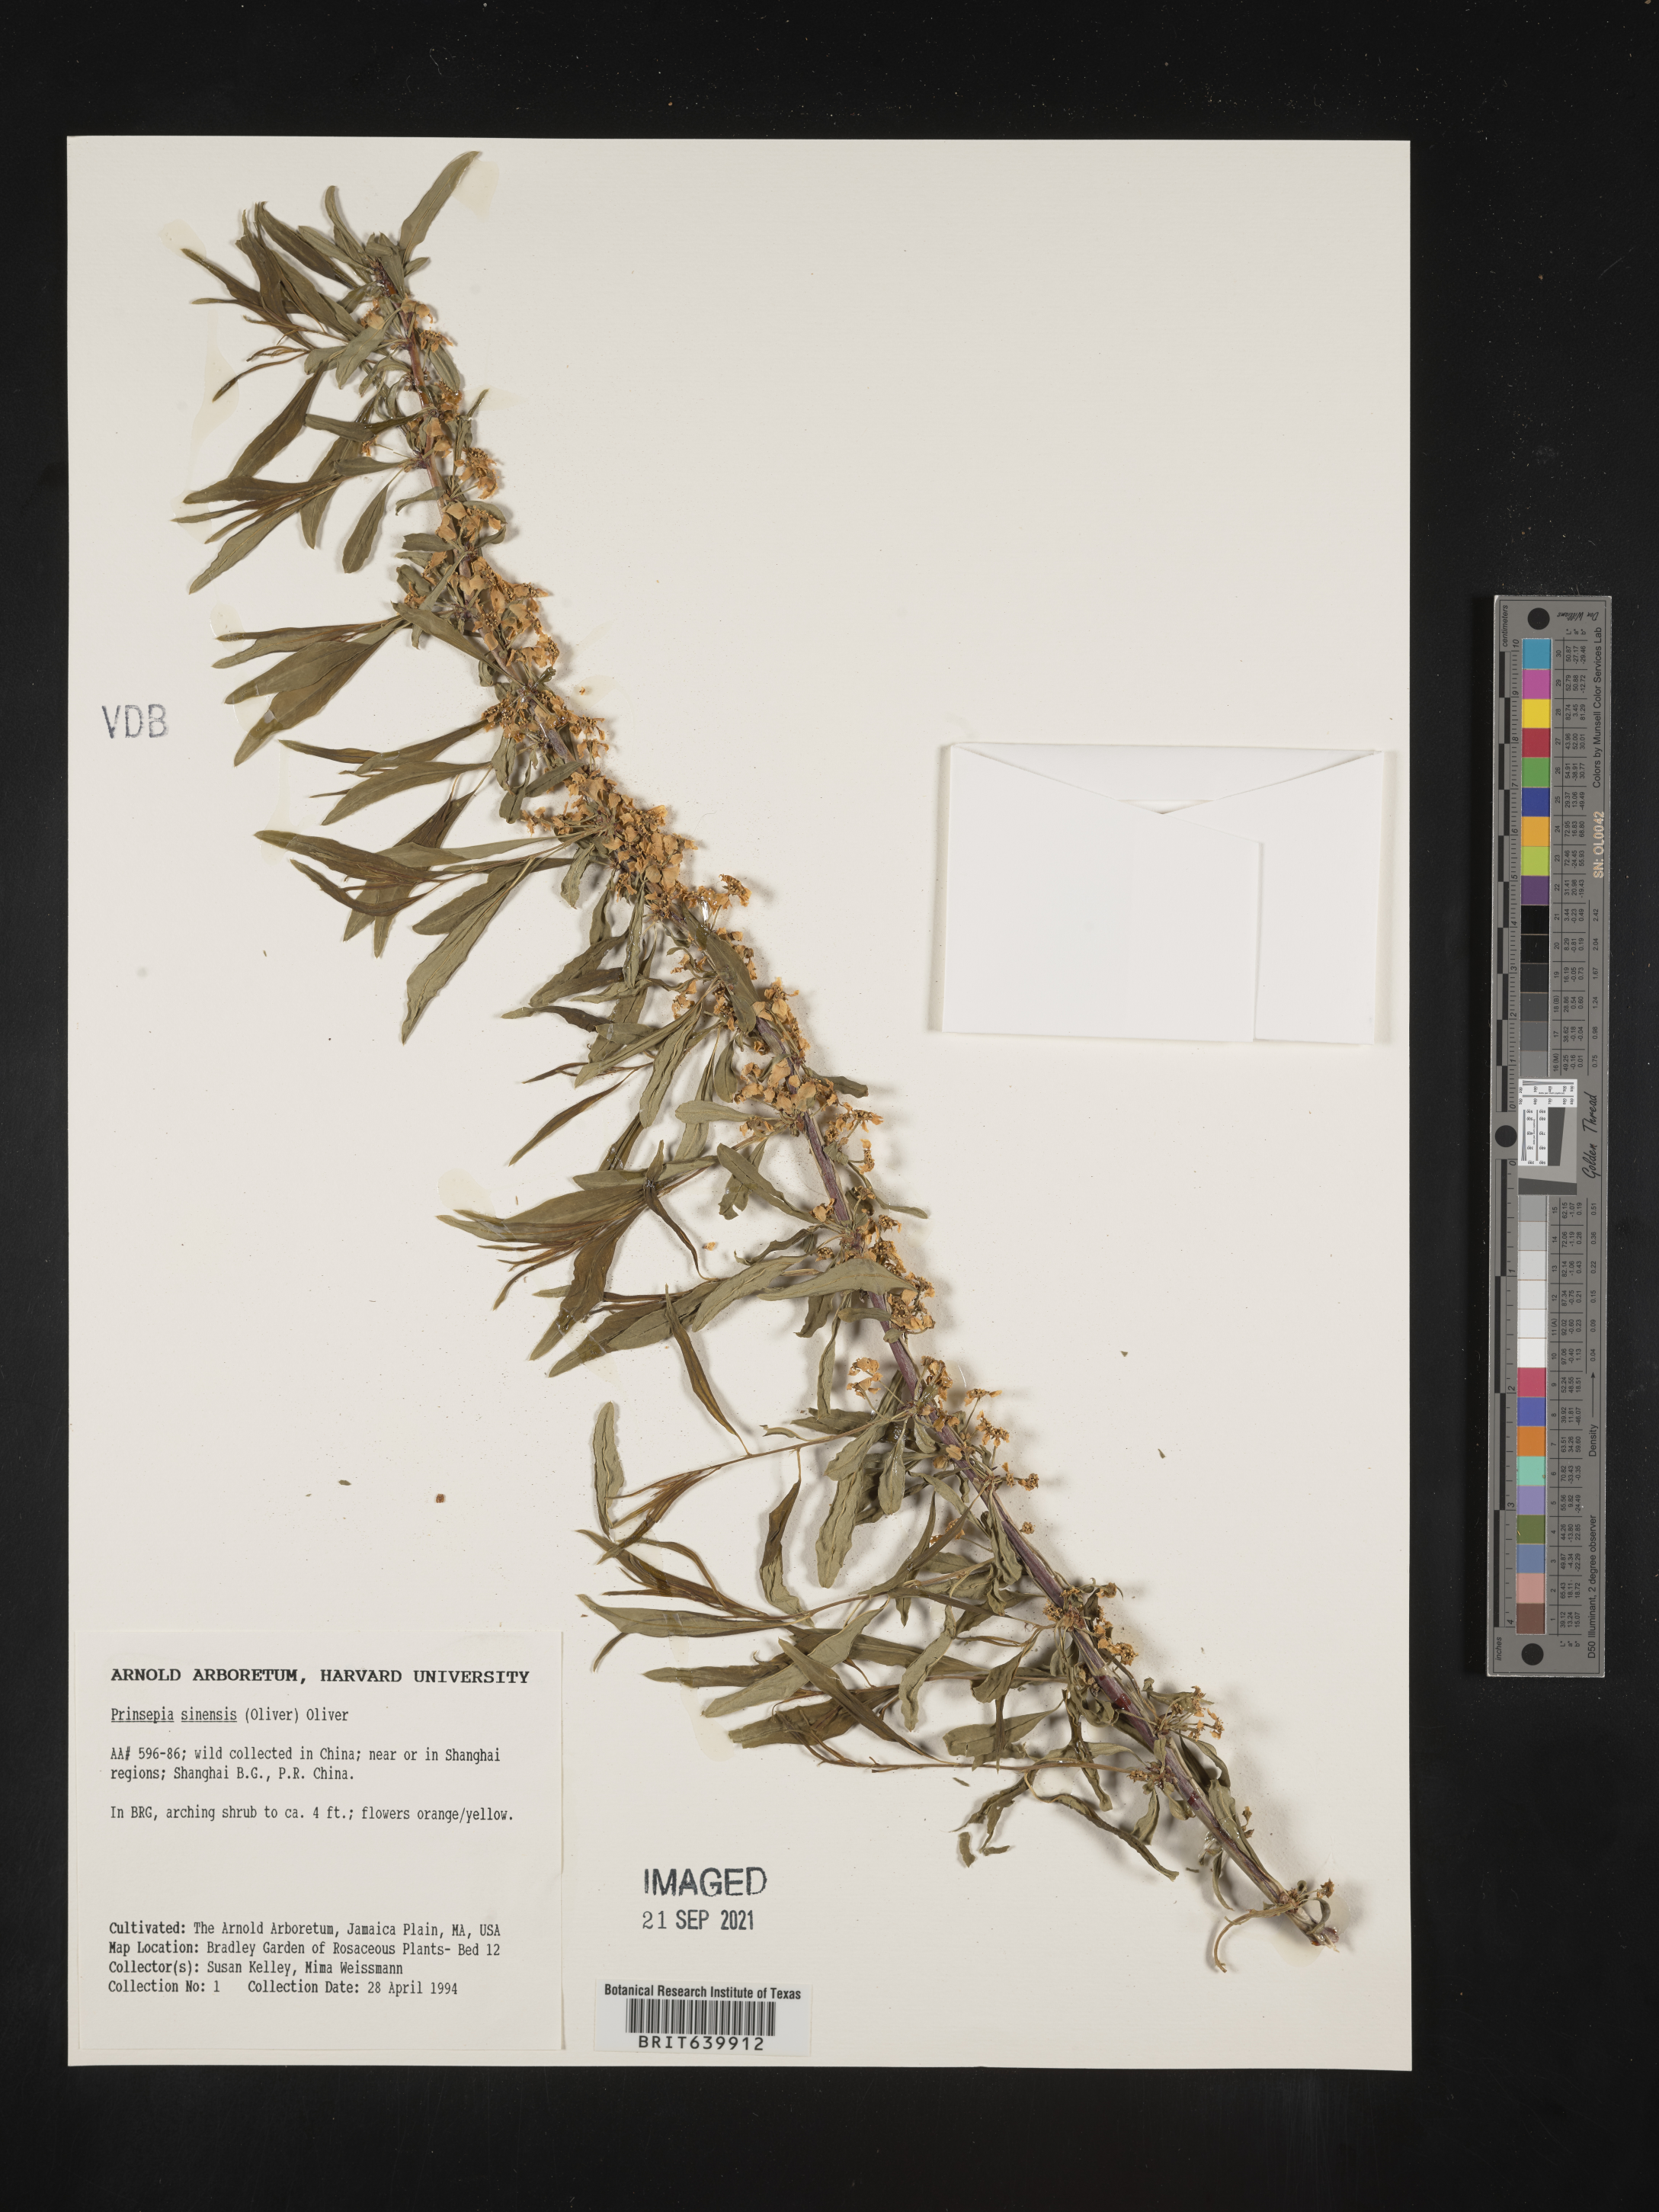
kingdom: Plantae
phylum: Tracheophyta
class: Magnoliopsida
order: Rosales
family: Rosaceae
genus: Prinsepia
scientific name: Prinsepia sinensis
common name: Cherry prinsepia
